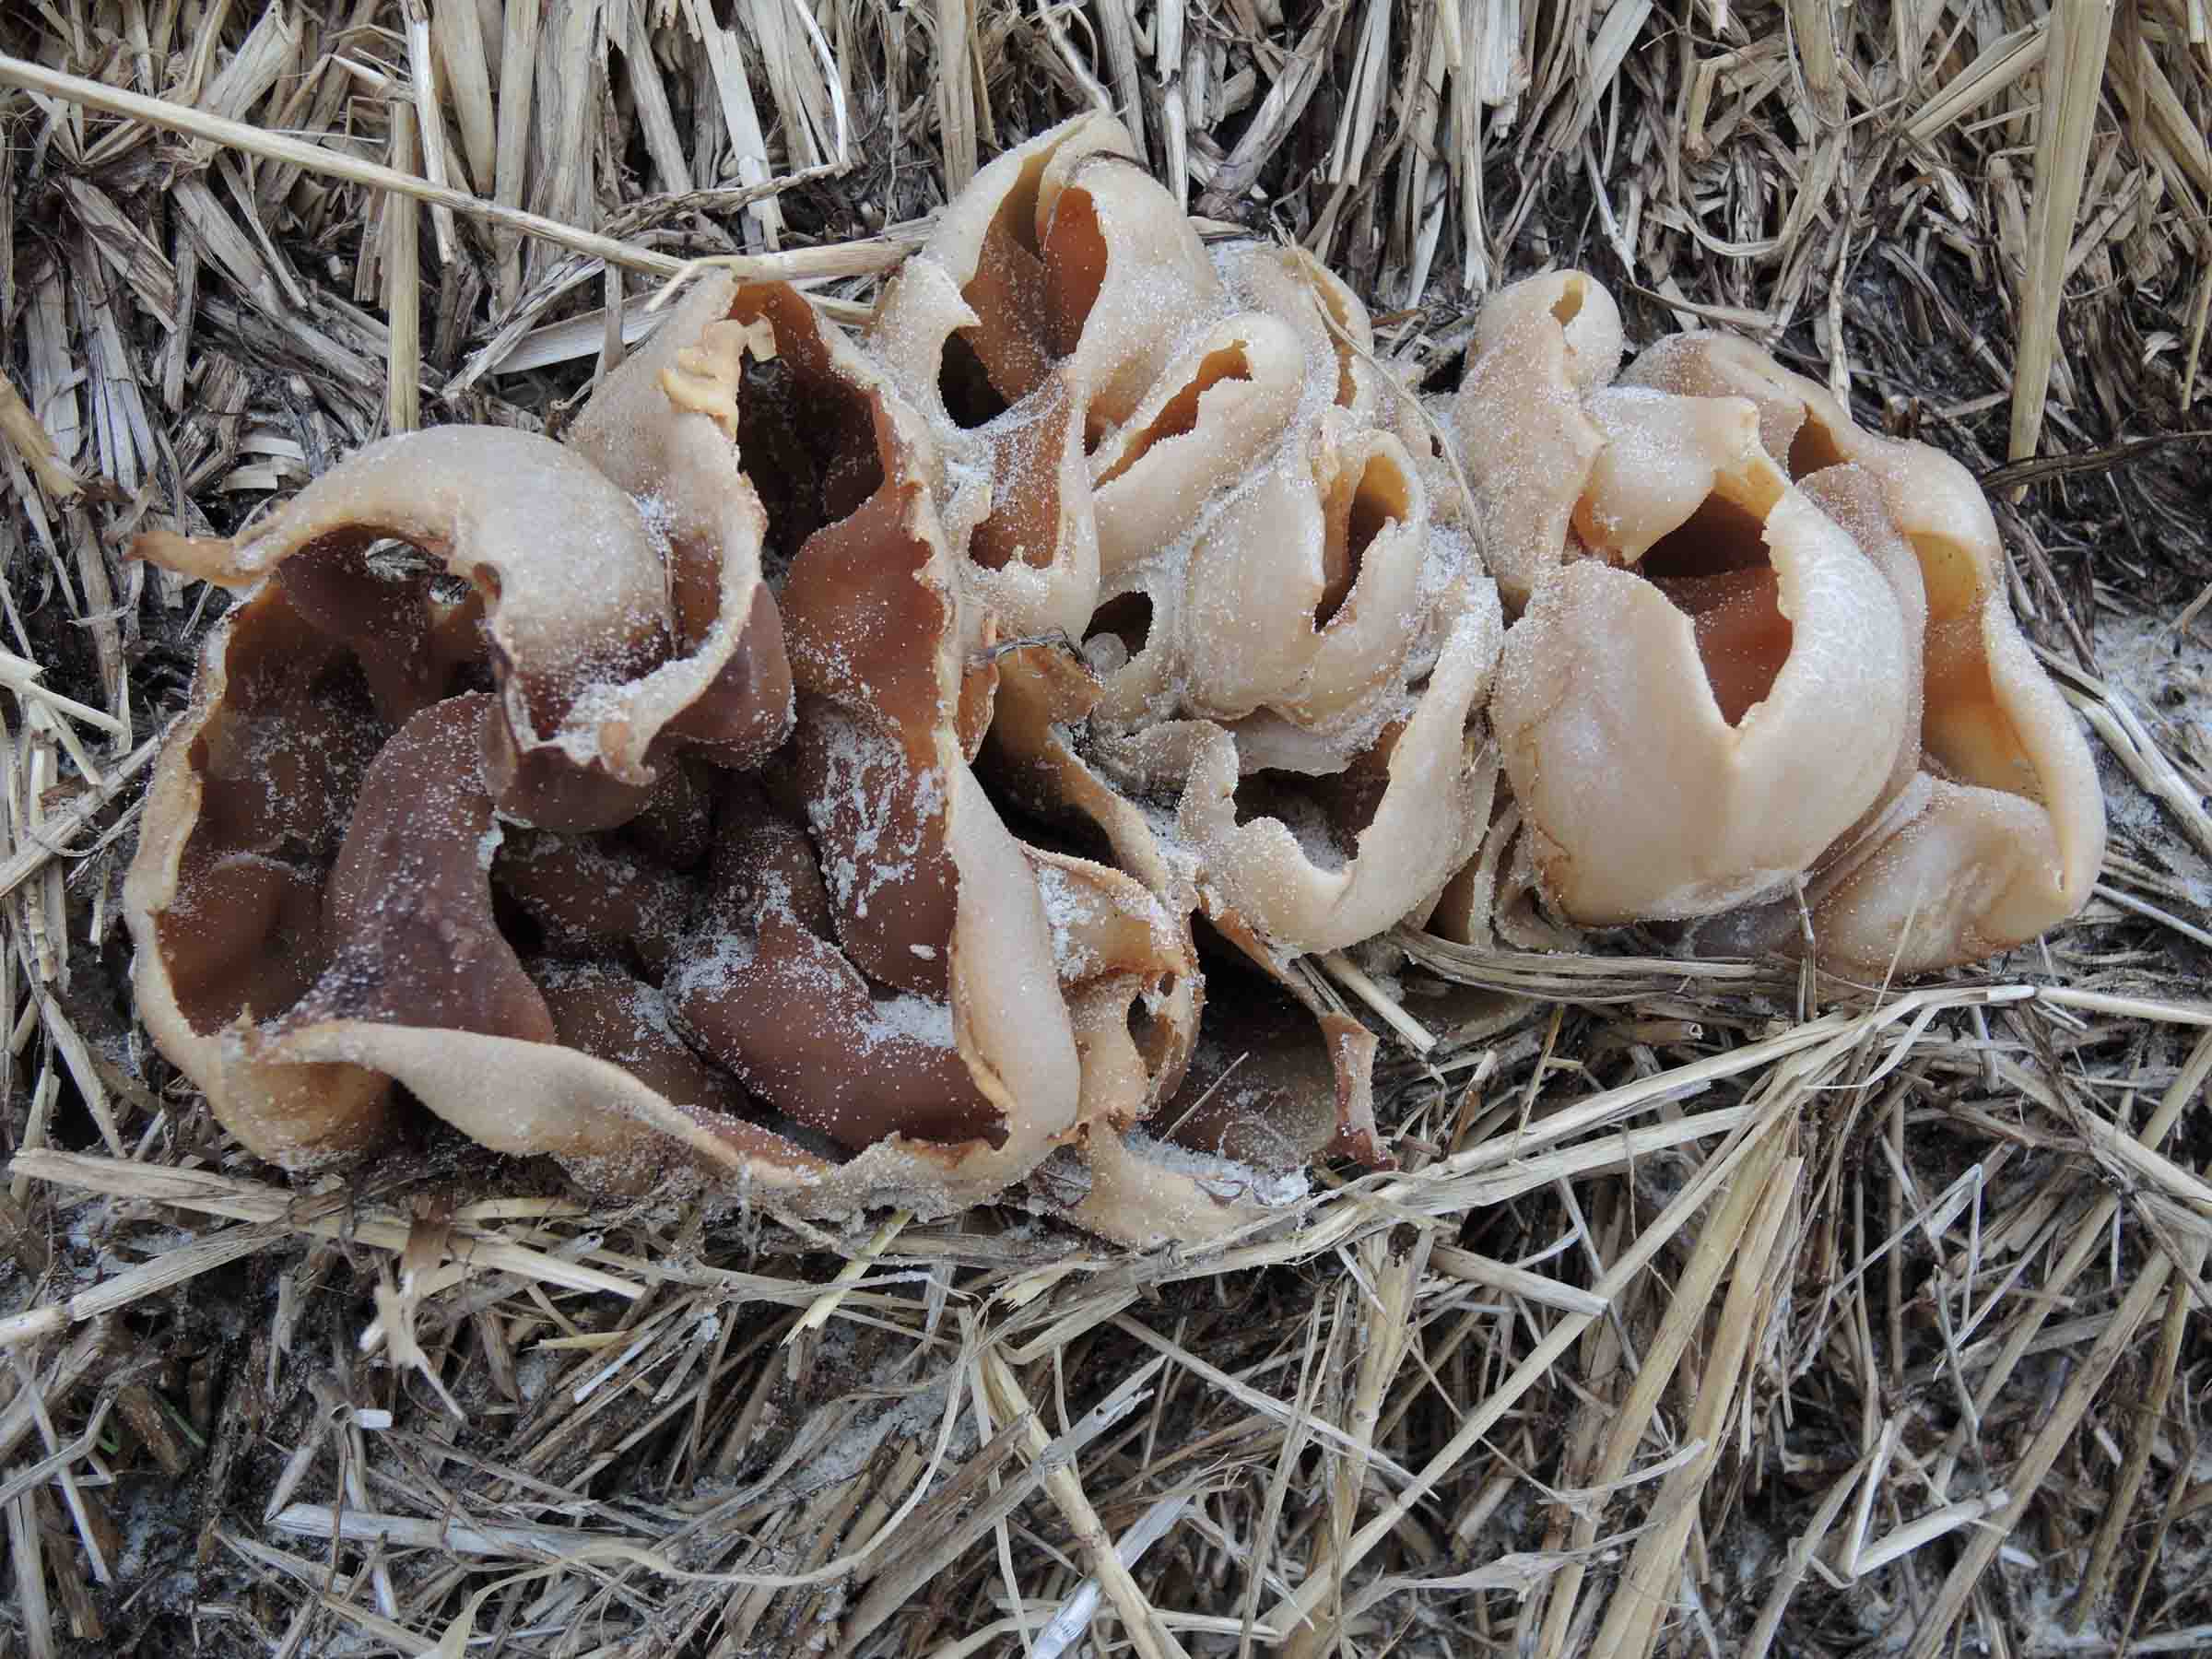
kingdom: Fungi
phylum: Ascomycota
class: Pezizomycetes
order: Pezizales
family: Pezizaceae
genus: Peziza
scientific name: Peziza vesiculosa
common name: blære-bægersvamp
